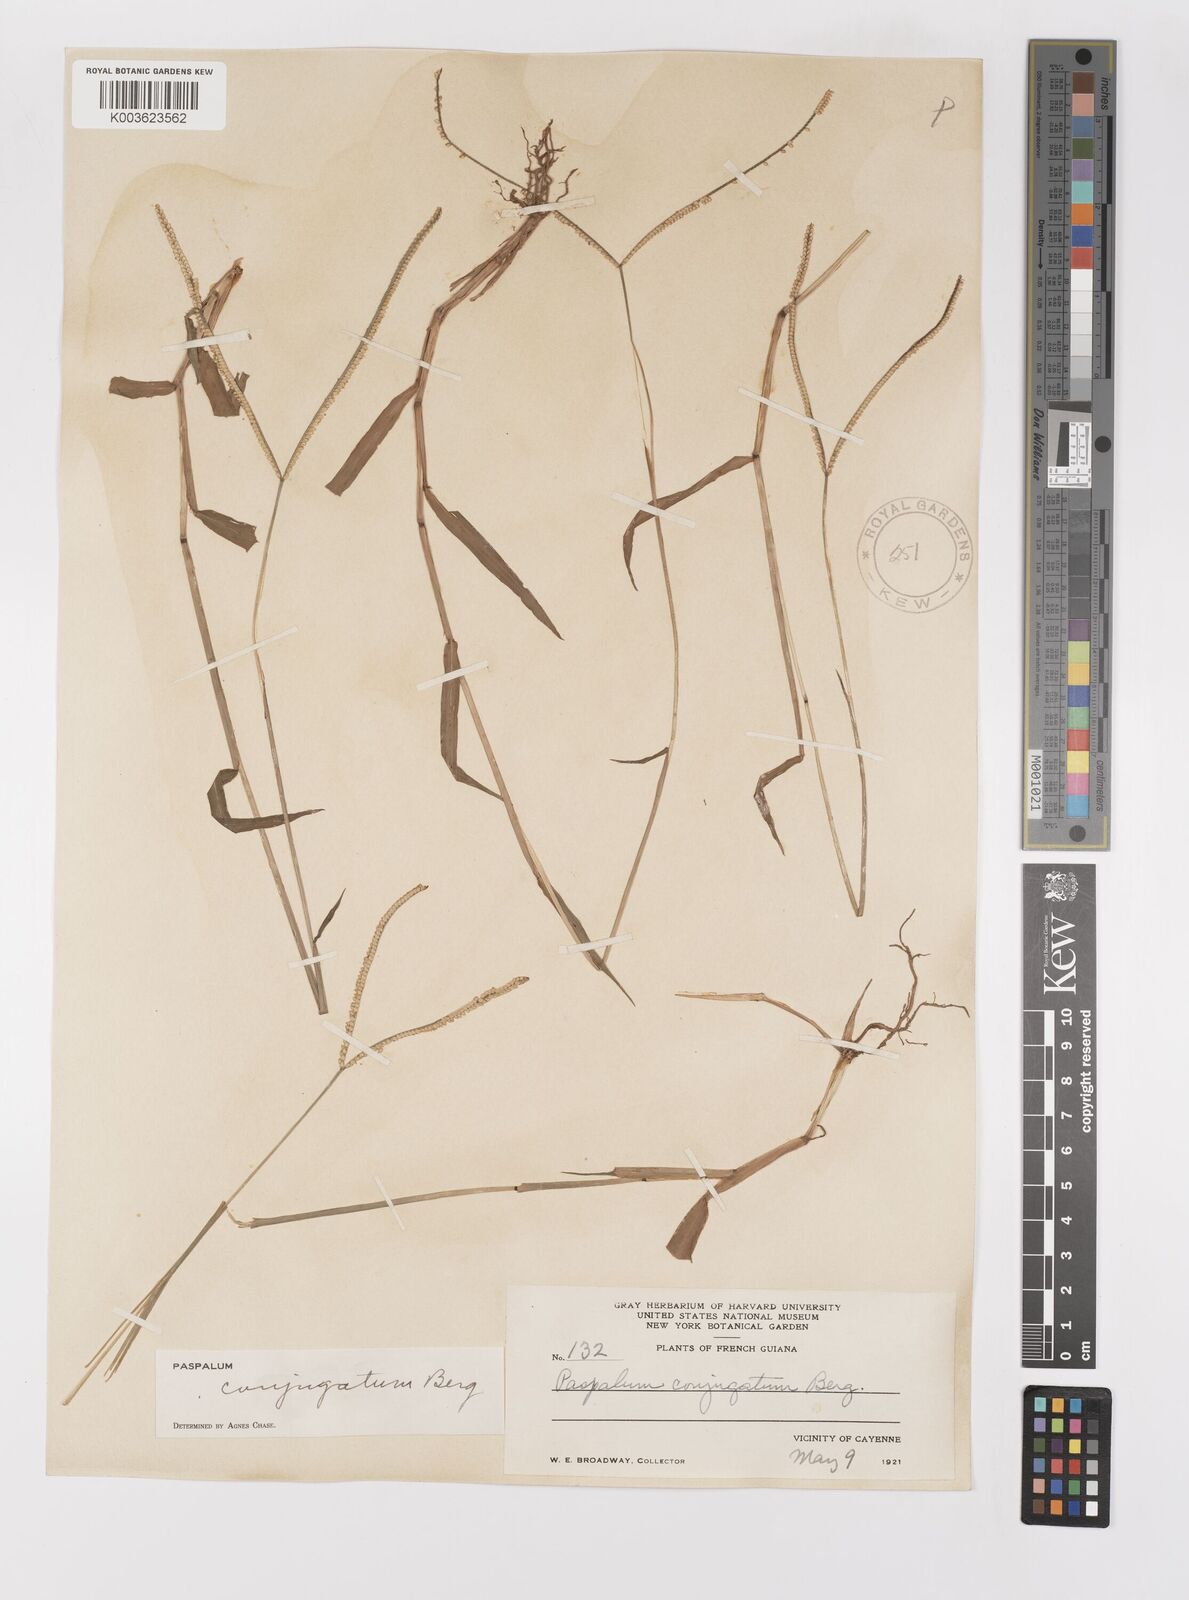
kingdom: Plantae
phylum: Tracheophyta
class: Liliopsida
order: Poales
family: Poaceae
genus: Paspalum
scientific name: Paspalum conjugatum
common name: Hilograss
